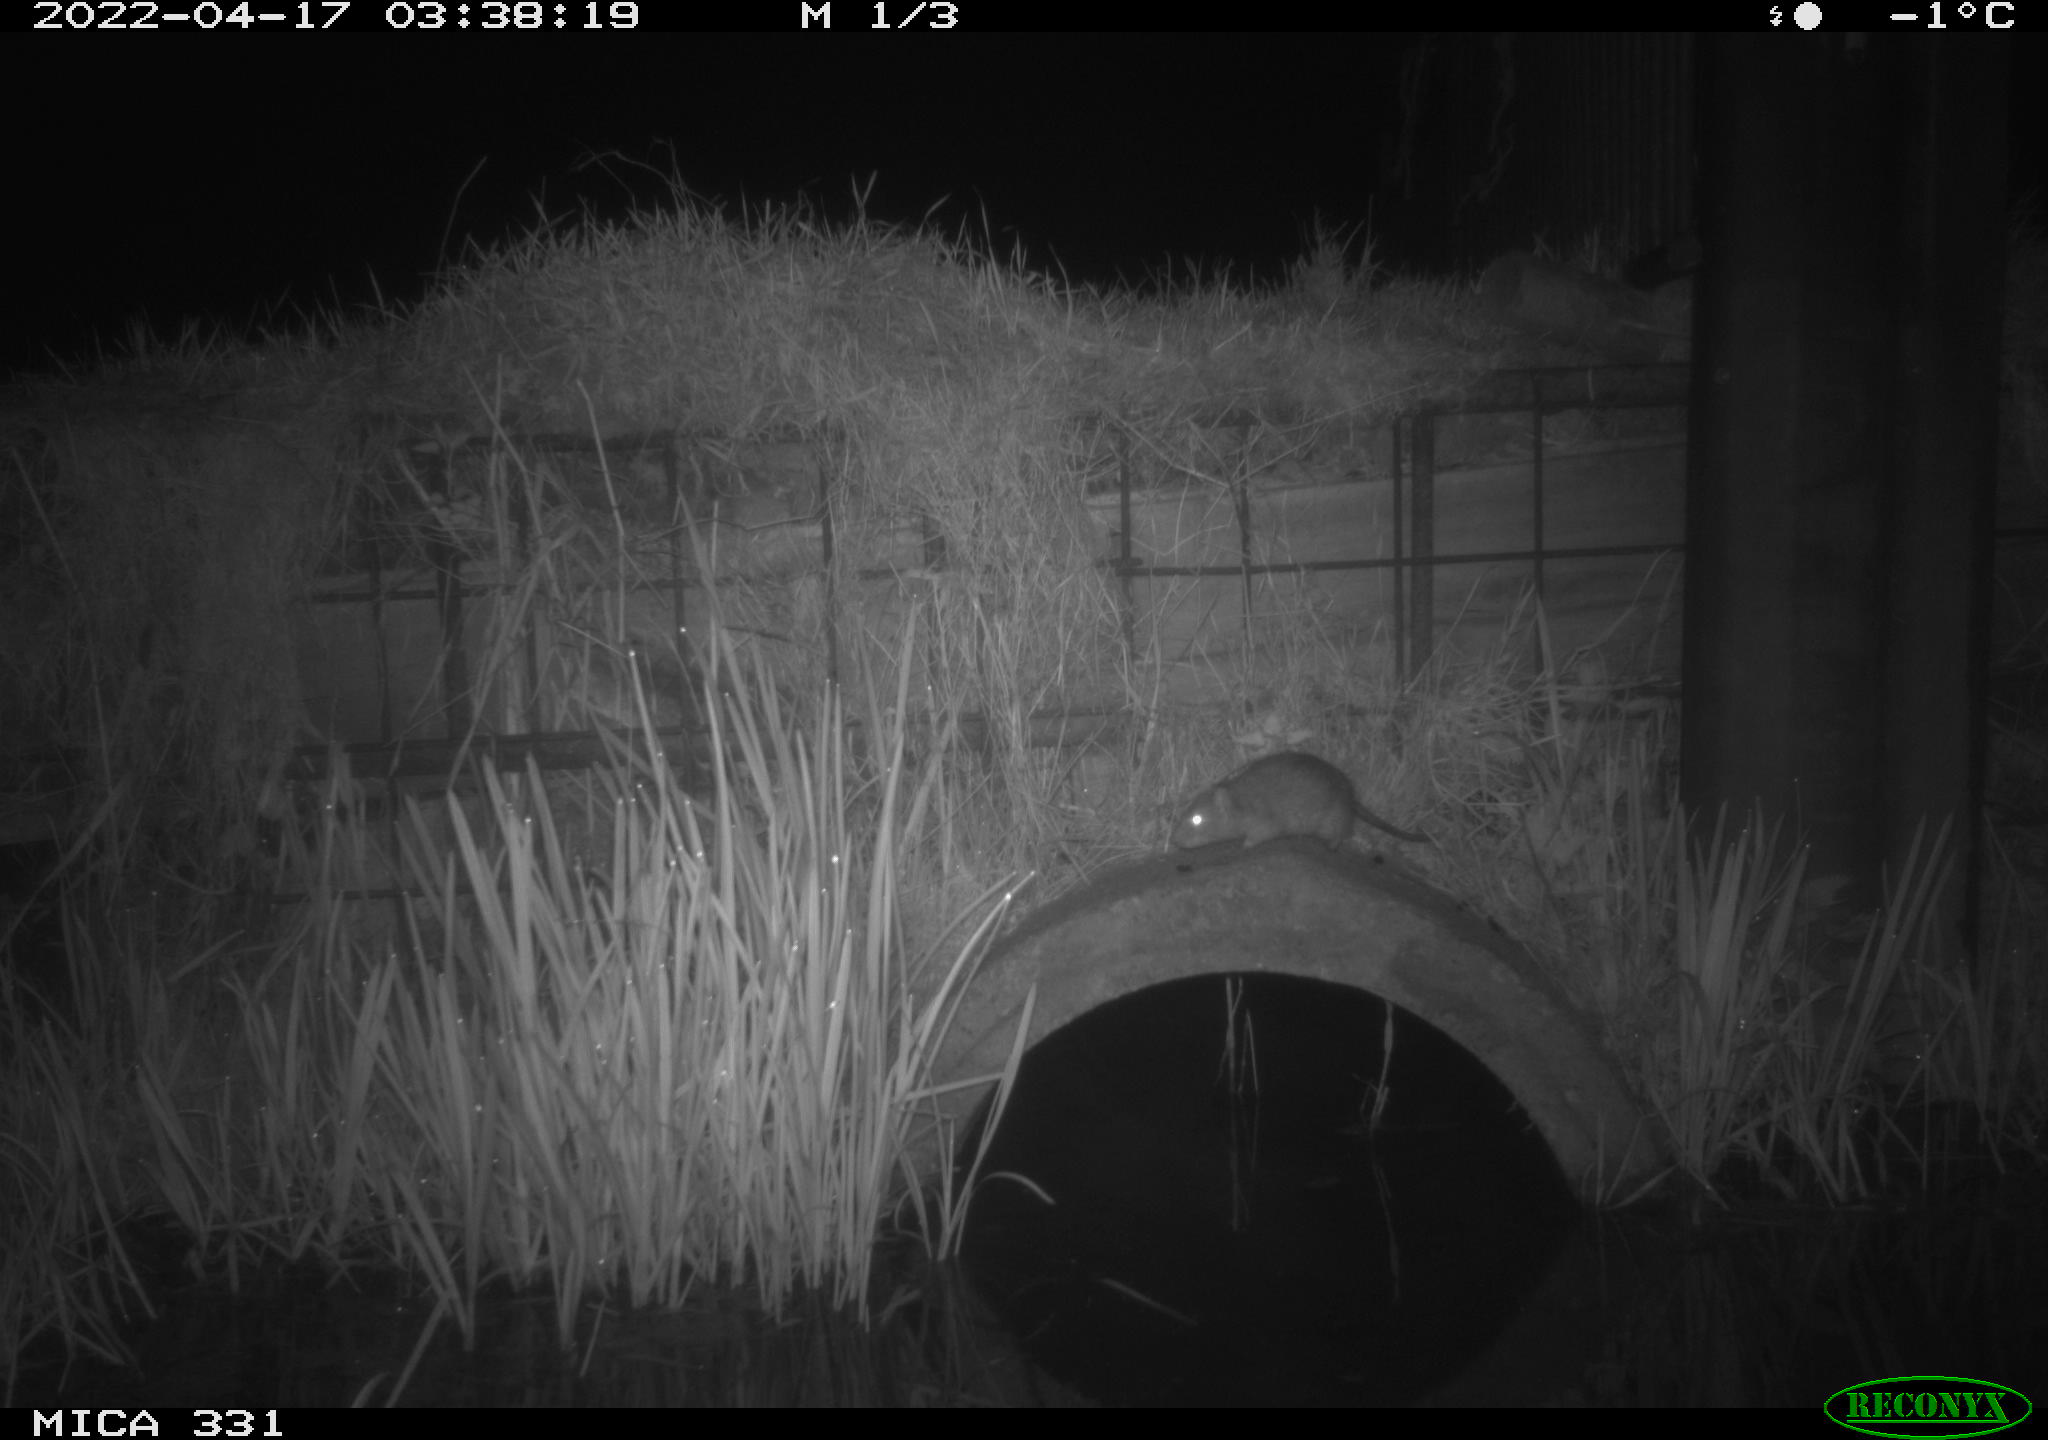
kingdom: Animalia
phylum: Chordata
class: Mammalia
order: Rodentia
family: Muridae
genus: Rattus
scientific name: Rattus norvegicus
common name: Brown rat
